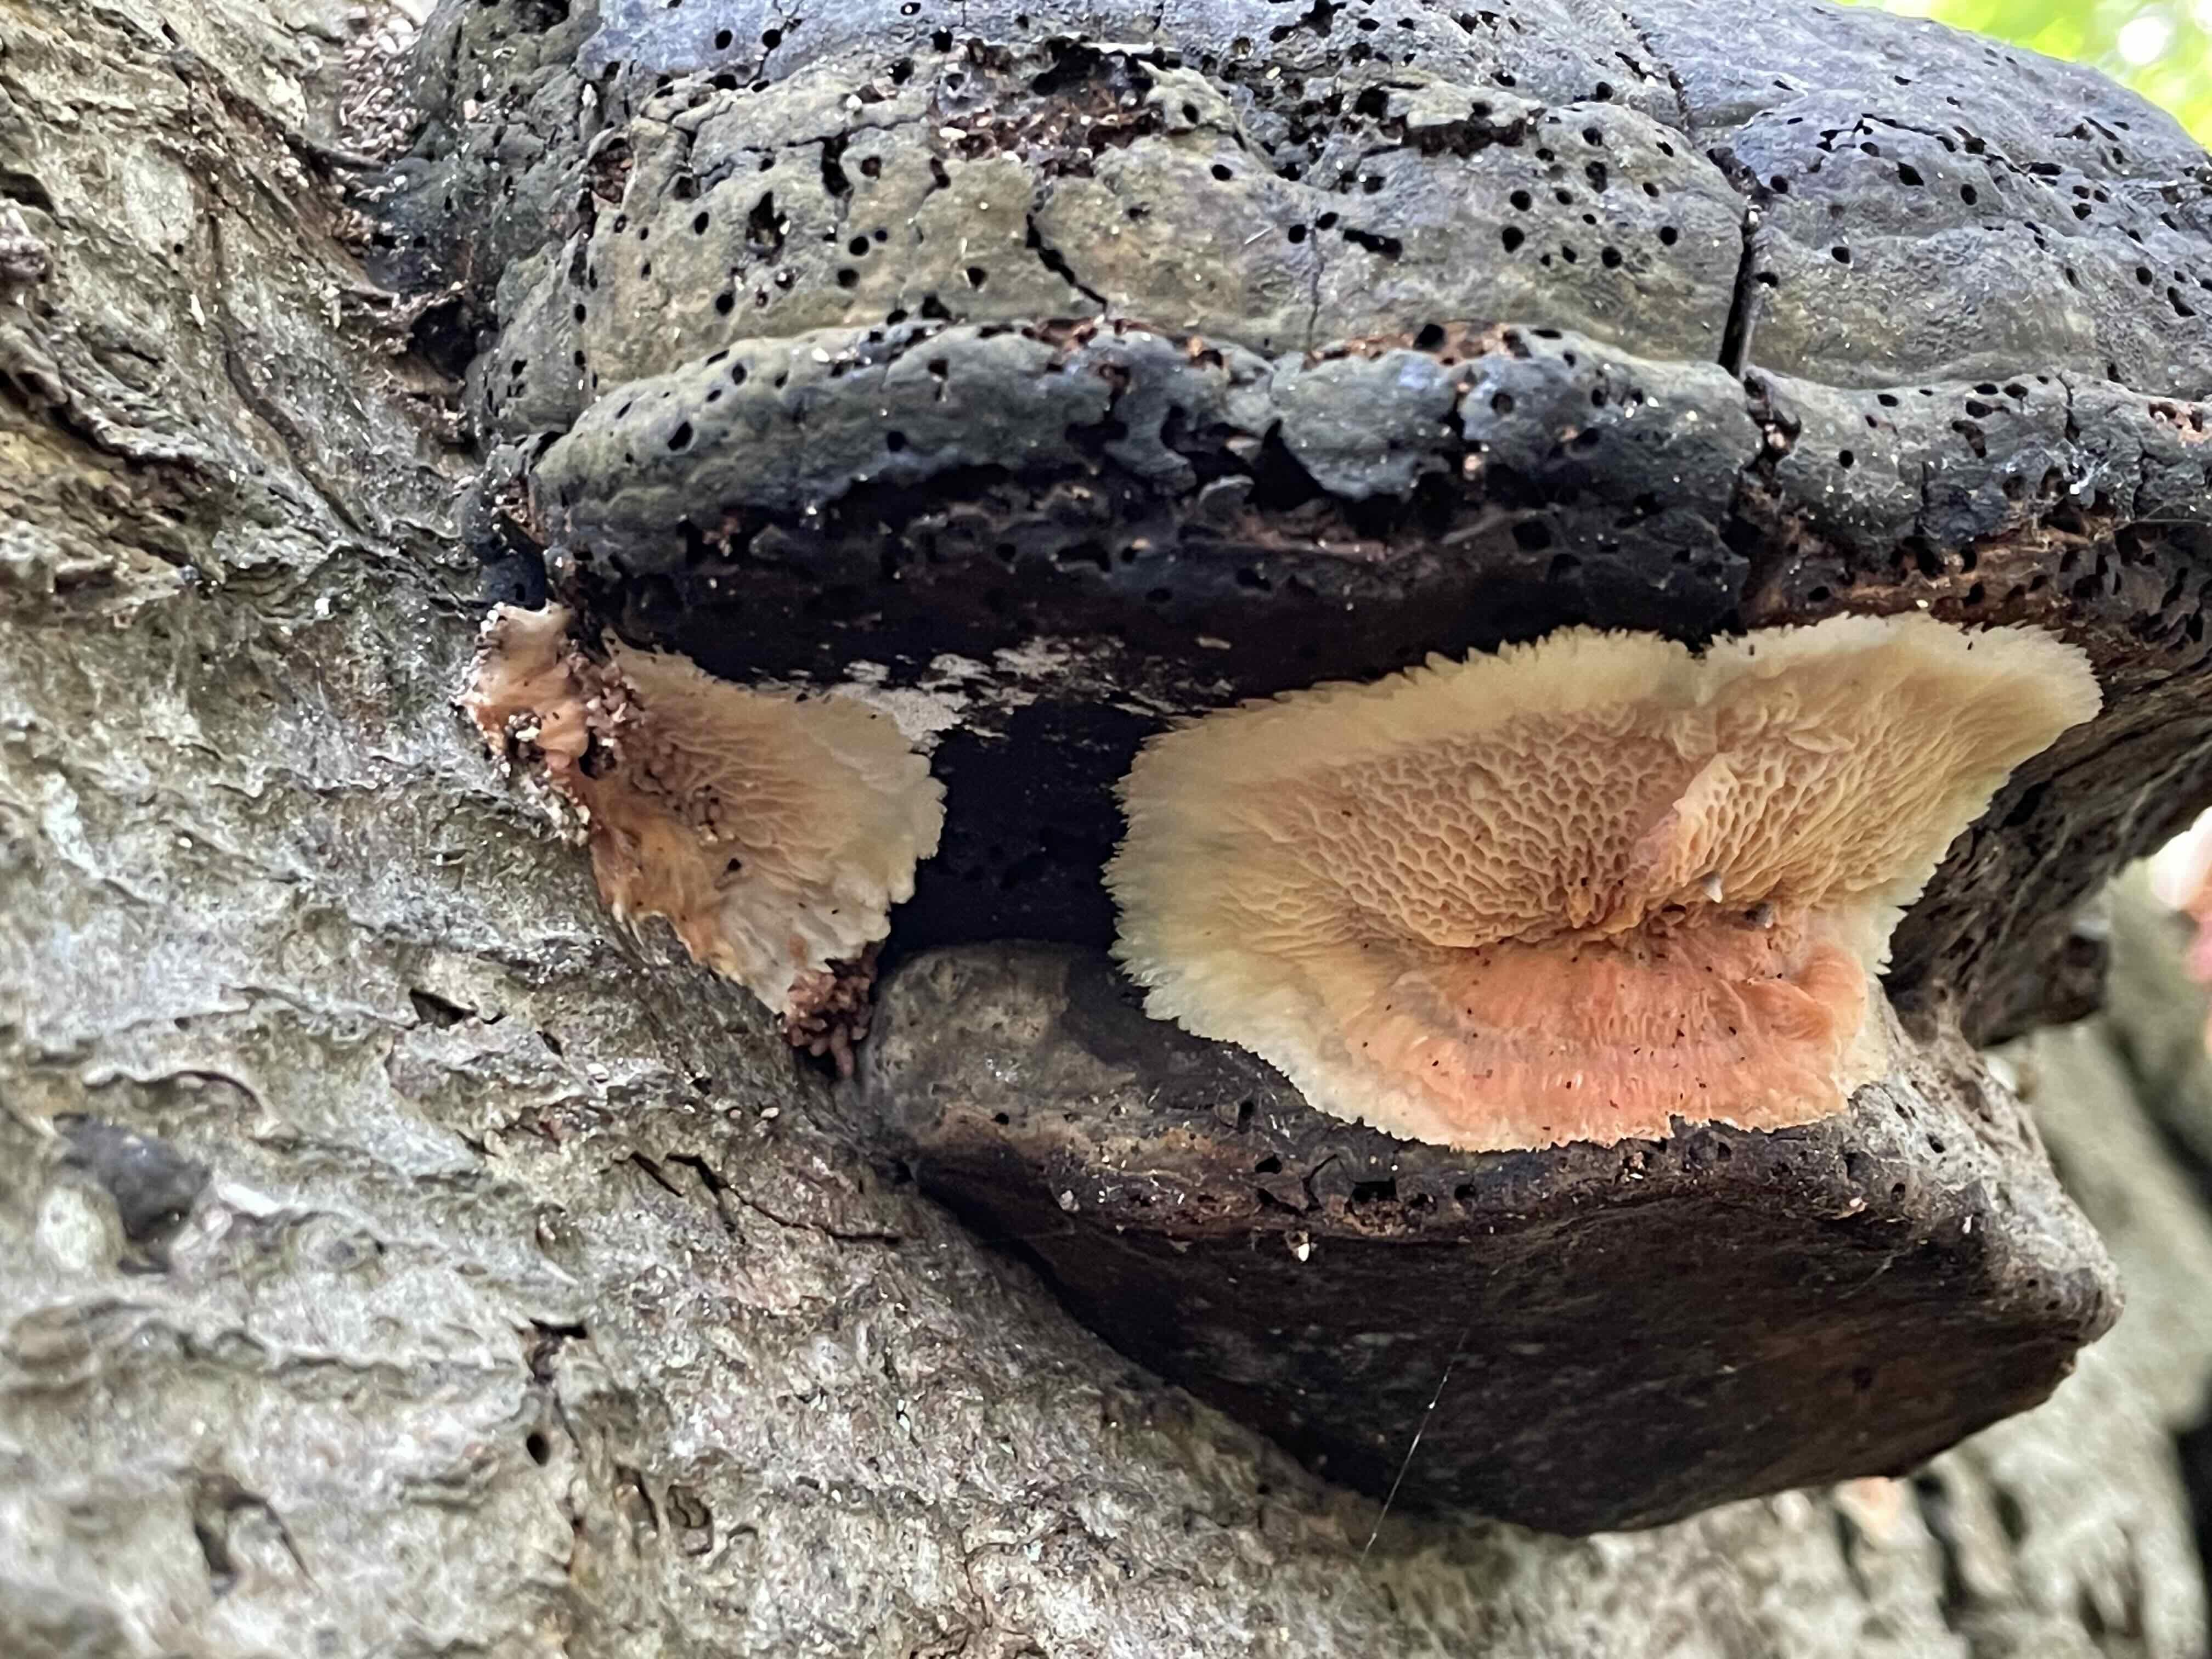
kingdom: Fungi
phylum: Basidiomycota
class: Agaricomycetes
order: Polyporales
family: Meruliaceae
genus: Phlebia
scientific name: Phlebia tremellosa
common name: bævrende åresvamp
